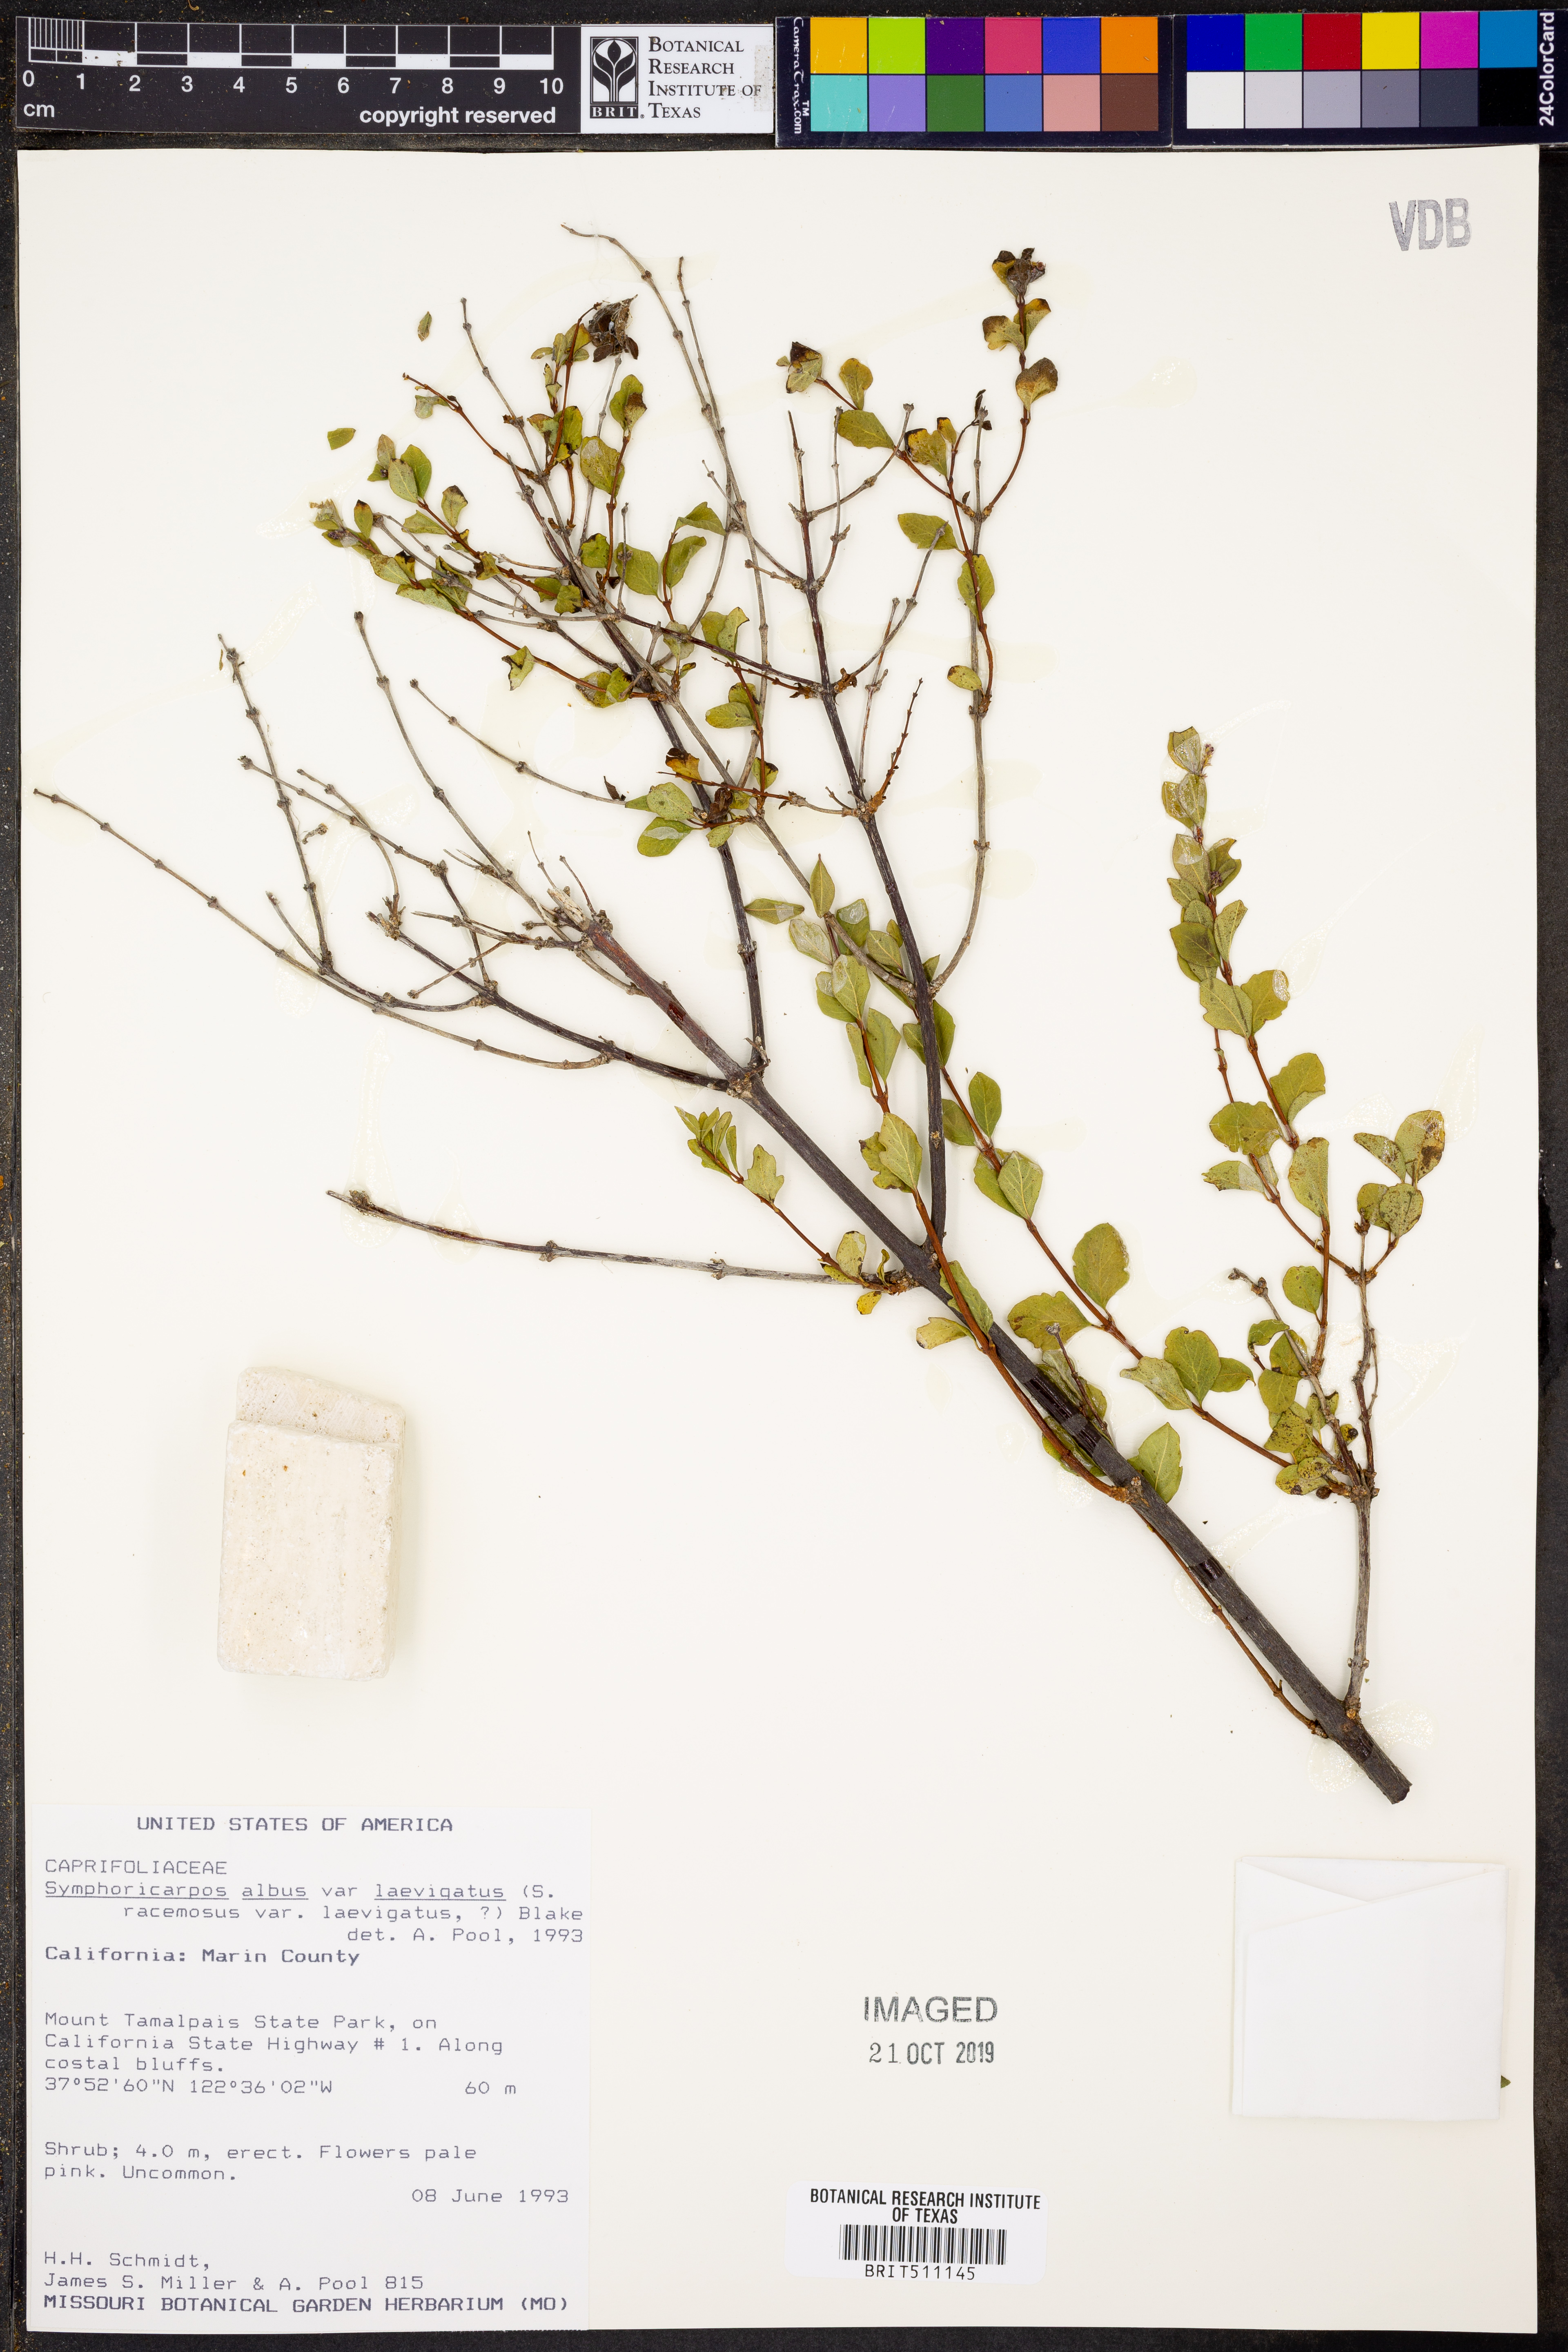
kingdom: Plantae
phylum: Tracheophyta
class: Magnoliopsida
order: Dipsacales
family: Caprifoliaceae
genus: Symphoricarpos
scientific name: Symphoricarpos albus
